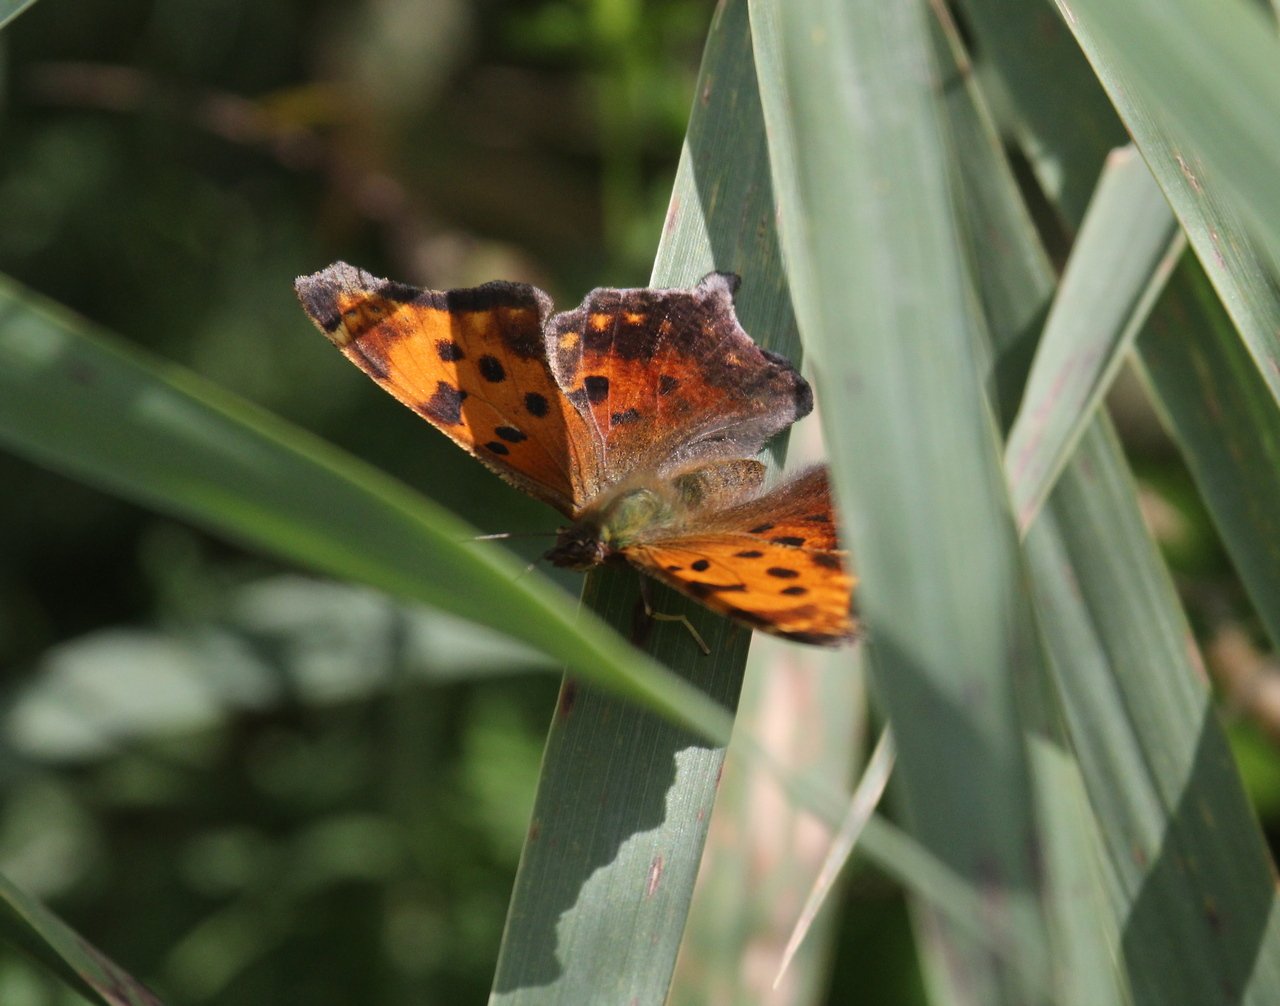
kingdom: Animalia
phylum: Arthropoda
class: Insecta
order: Lepidoptera
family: Nymphalidae
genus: Polygonia
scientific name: Polygonia comma
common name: Eastern Comma
